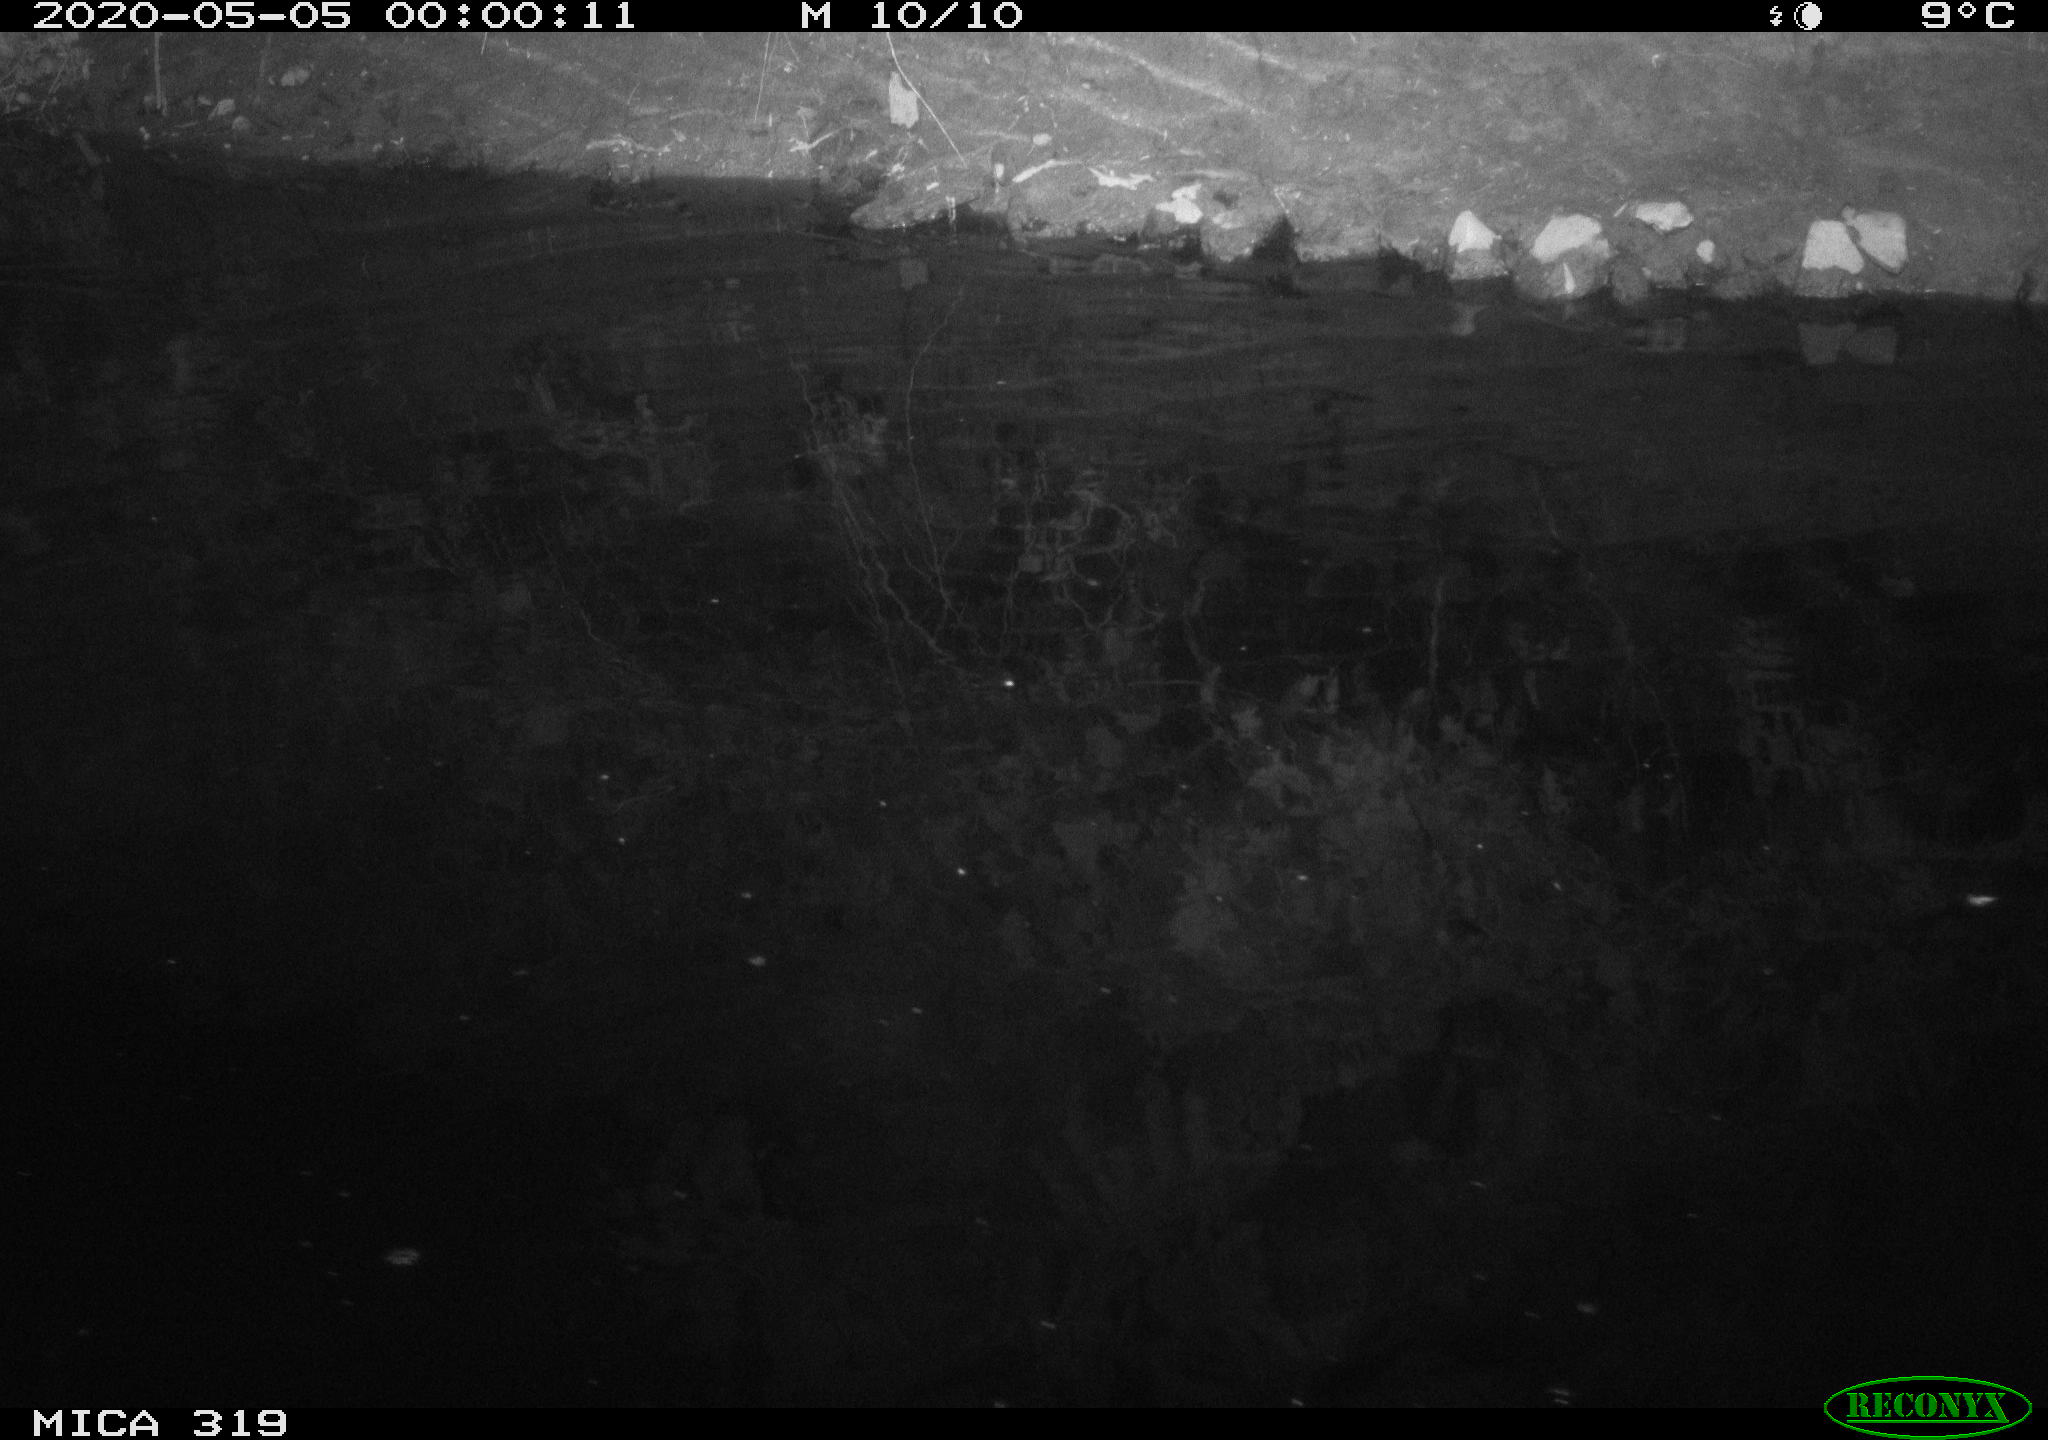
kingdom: Animalia
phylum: Chordata
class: Aves
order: Anseriformes
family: Anatidae
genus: Anas
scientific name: Anas platyrhynchos
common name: Mallard
